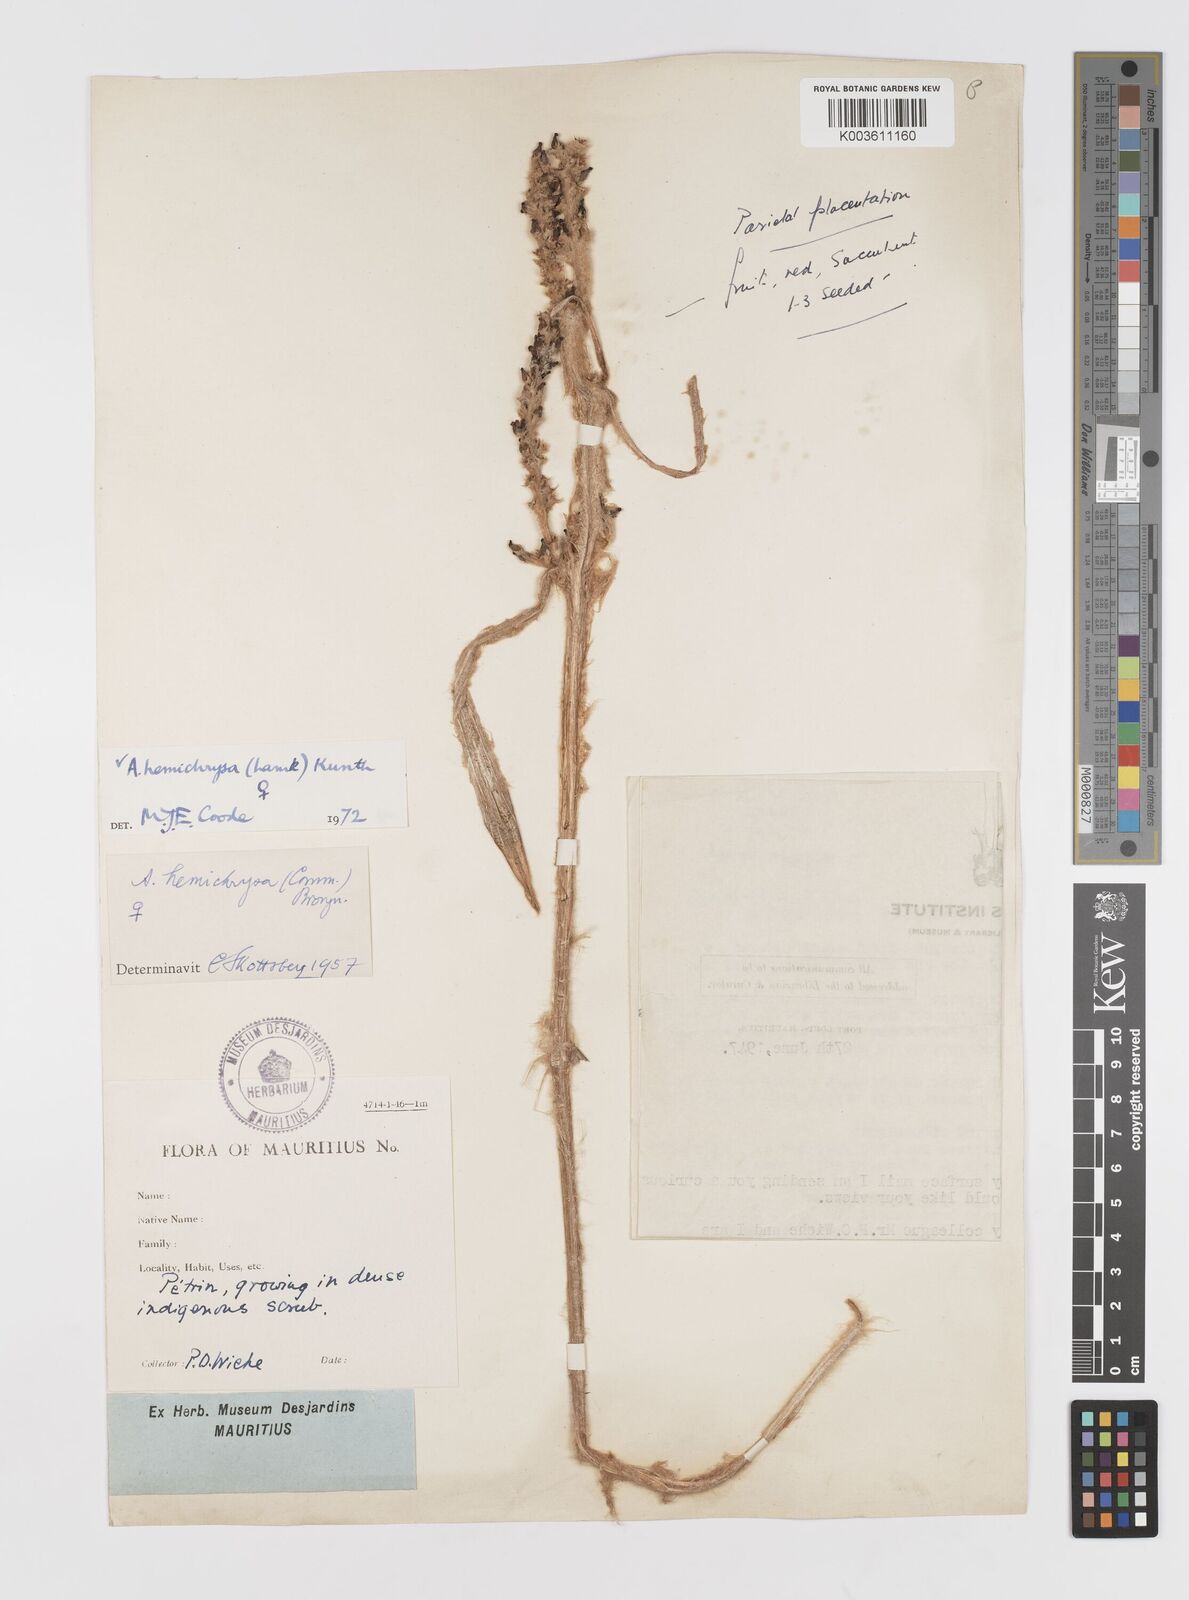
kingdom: Plantae
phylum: Tracheophyta
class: Liliopsida
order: Asparagales
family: Asteliaceae
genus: Astelia
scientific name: Astelia hemichrysa
